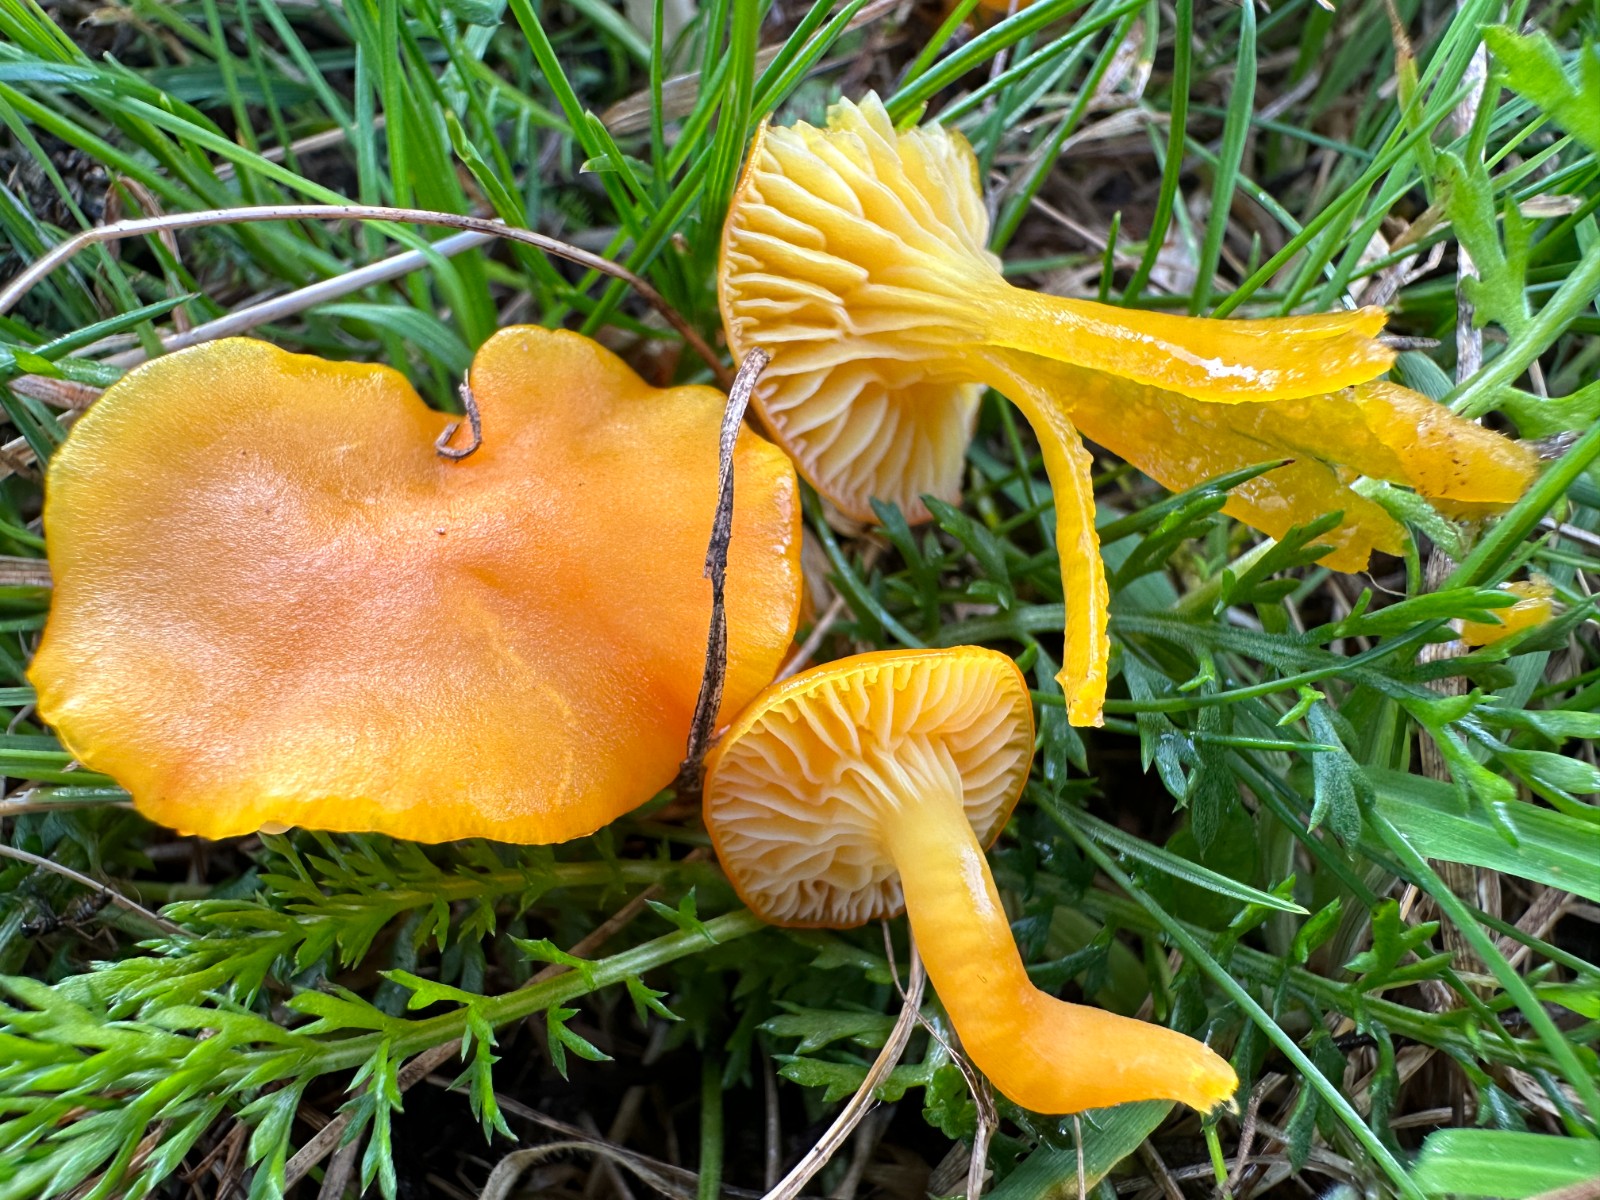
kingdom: Fungi
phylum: Basidiomycota
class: Agaricomycetes
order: Agaricales
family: Hygrophoraceae
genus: Hygrocybe
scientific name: Hygrocybe ceracea
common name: voksgul vokshat
